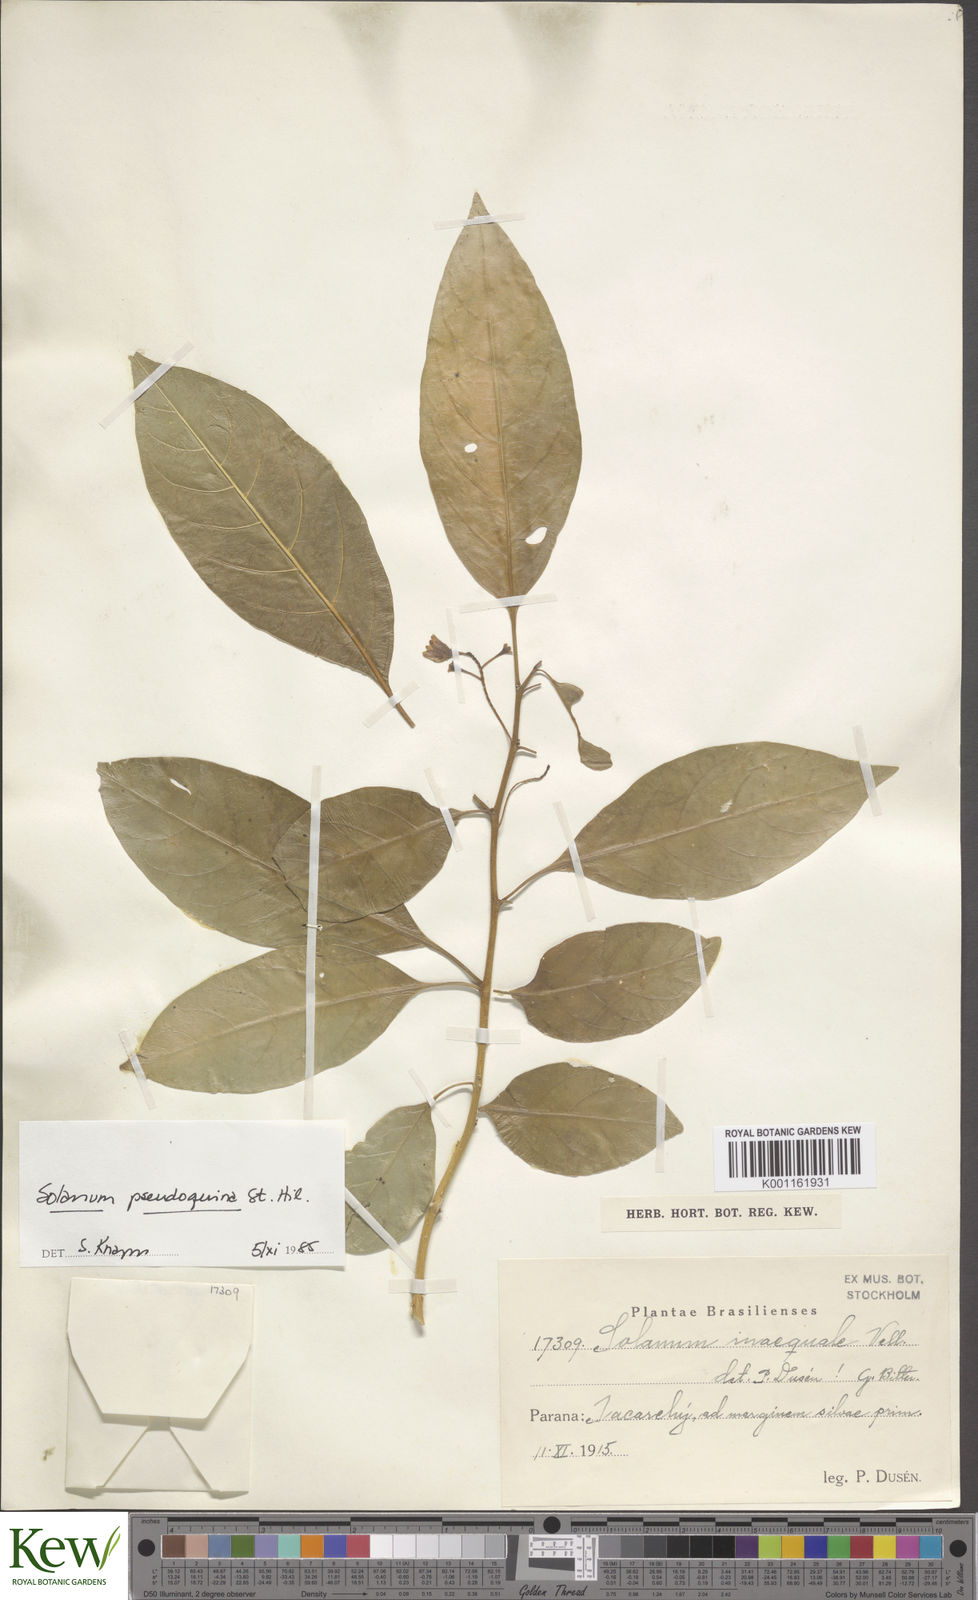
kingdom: Plantae
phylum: Tracheophyta
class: Magnoliopsida
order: Solanales
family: Solanaceae
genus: Solanum
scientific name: Solanum pseudoquina
